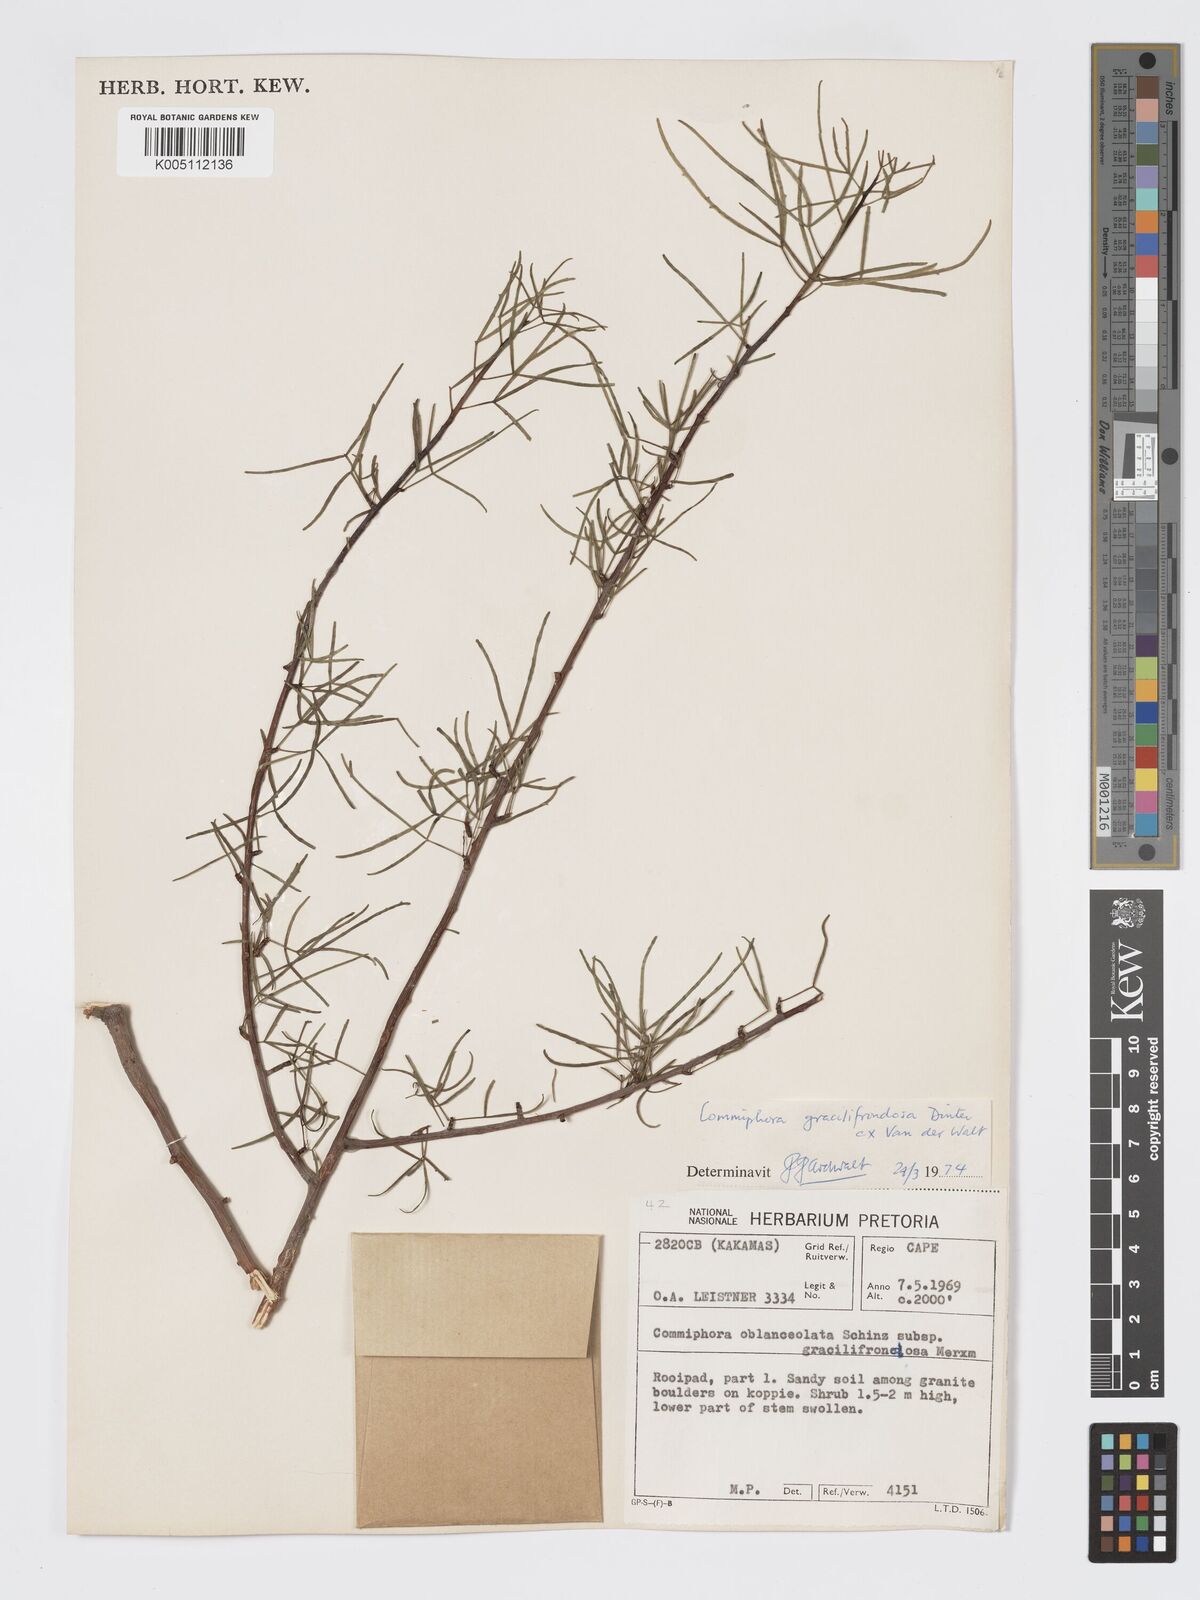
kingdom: Plantae
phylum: Tracheophyta
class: Magnoliopsida
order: Sapindales
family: Burseraceae
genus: Commiphora
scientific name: Commiphora gracilifrondosa
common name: Karee-leaved commiphora
